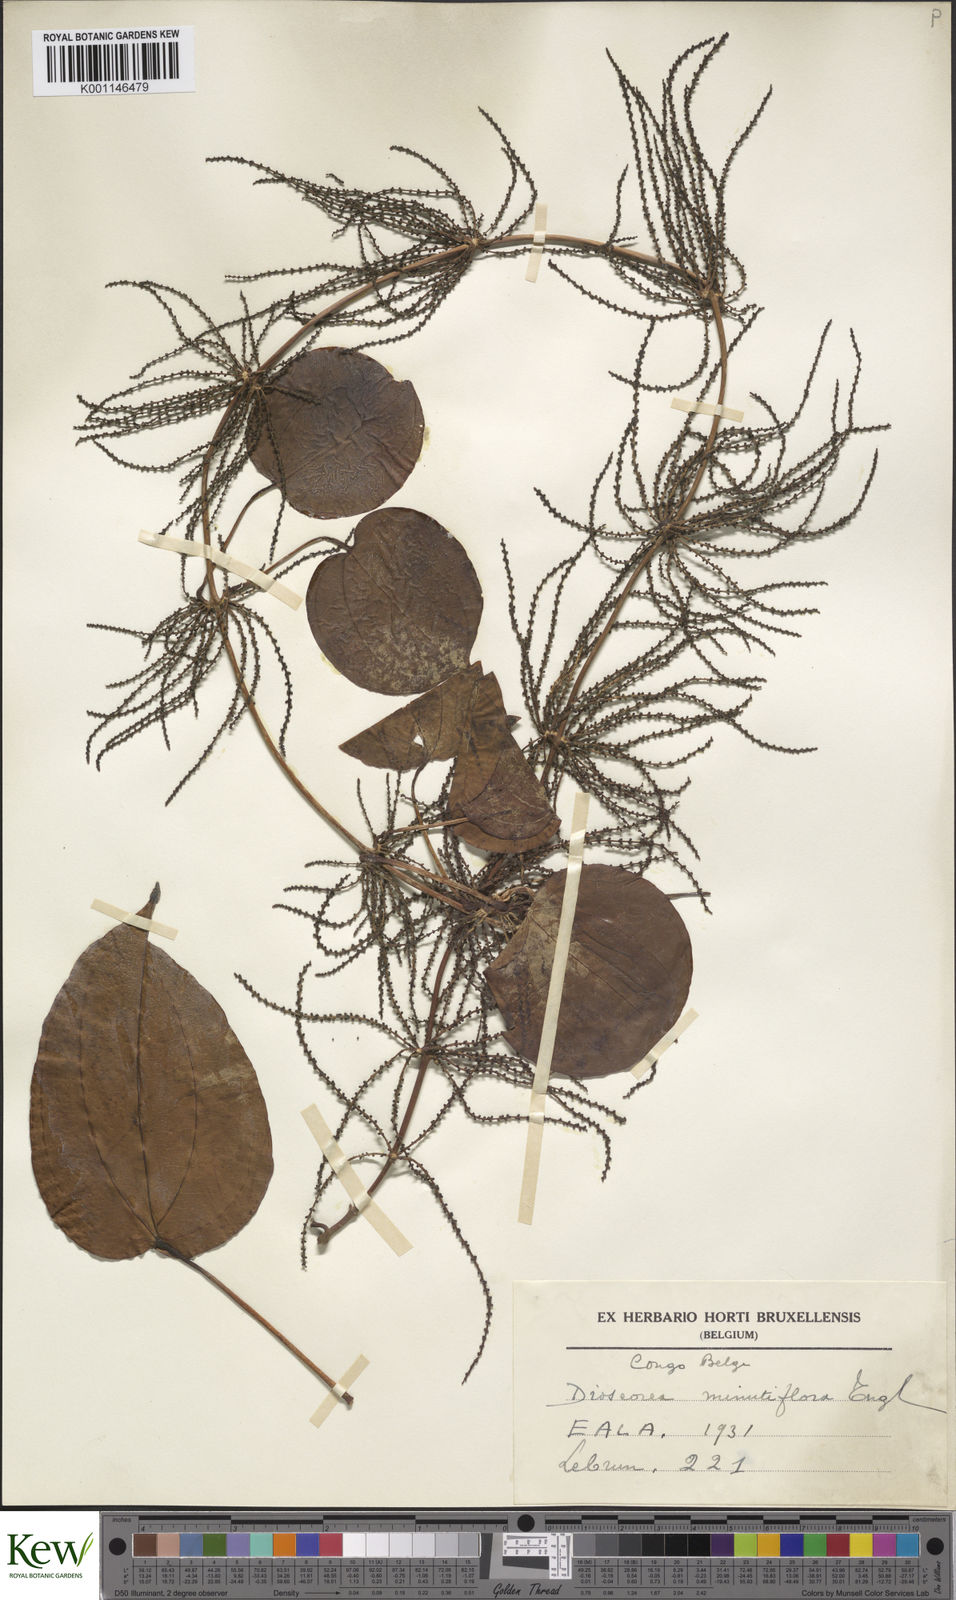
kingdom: Plantae
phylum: Tracheophyta
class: Liliopsida
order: Dioscoreales
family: Dioscoreaceae
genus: Dioscorea
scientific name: Dioscorea minutiflora
